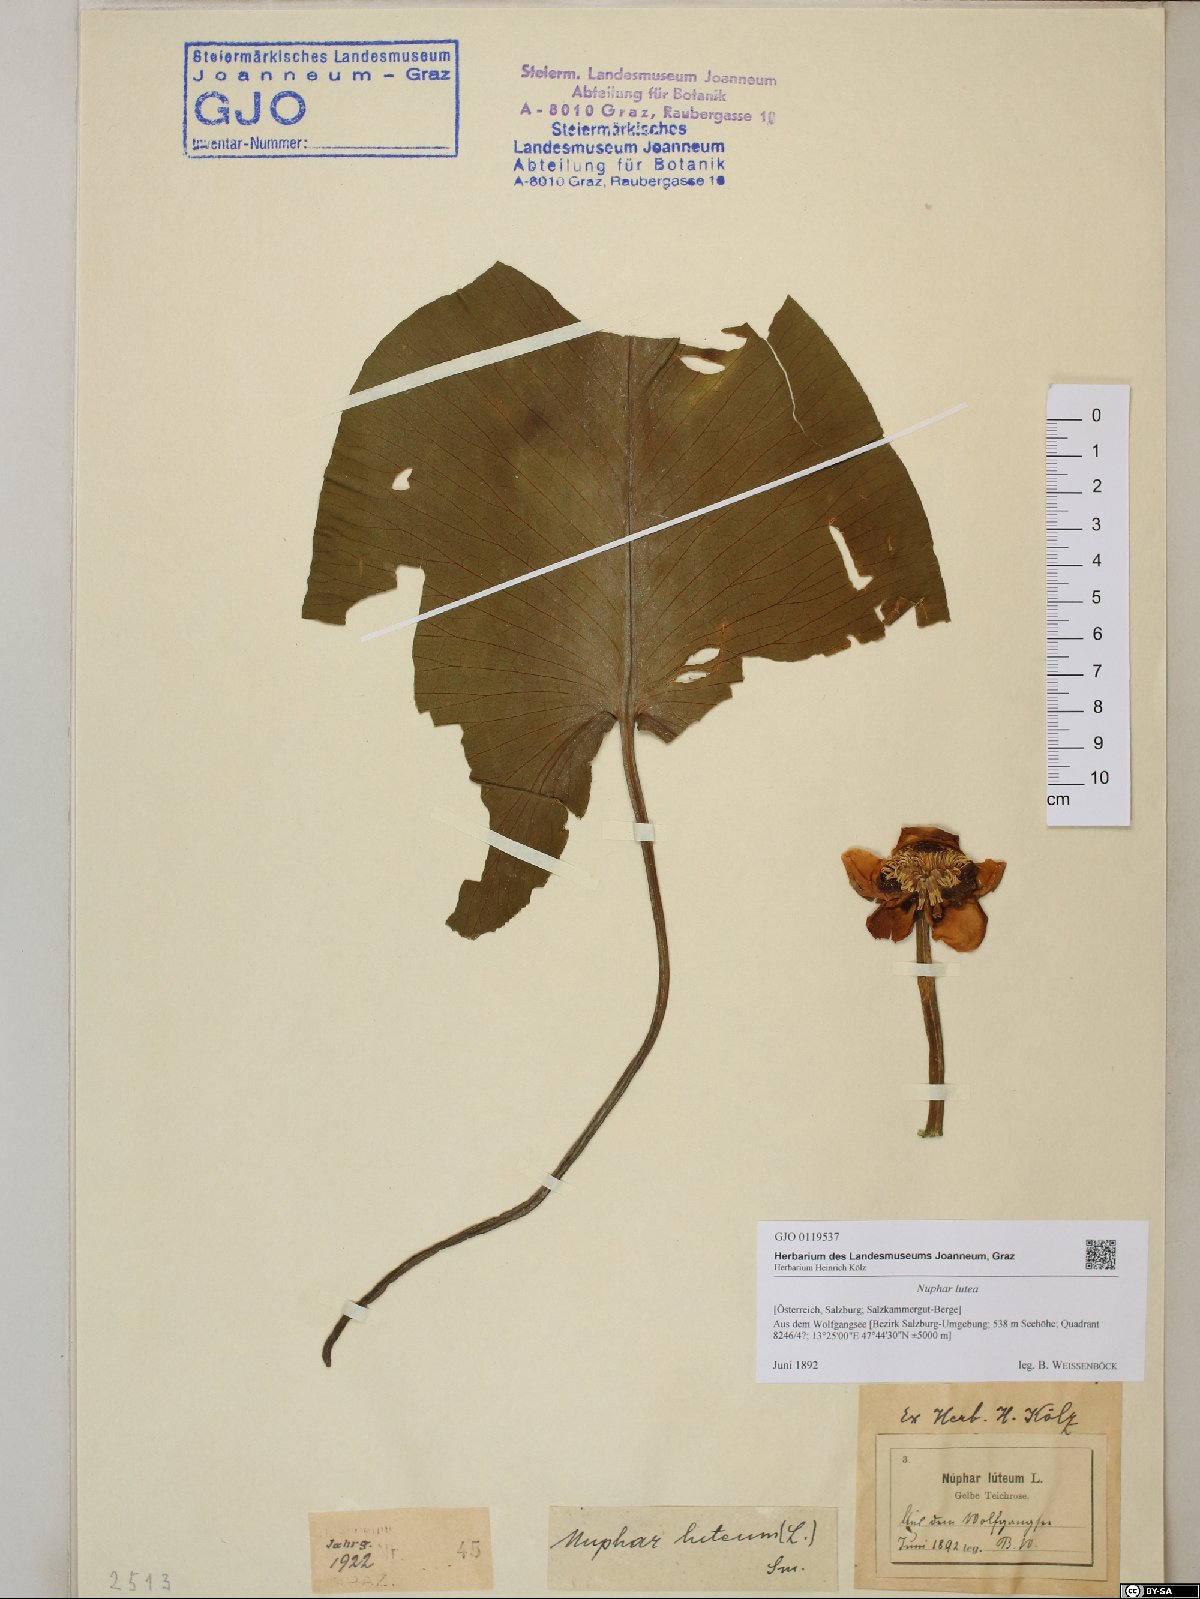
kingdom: Plantae
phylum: Tracheophyta
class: Magnoliopsida
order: Nymphaeales
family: Nymphaeaceae
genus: Nuphar
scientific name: Nuphar lutea
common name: Yellow water-lily
